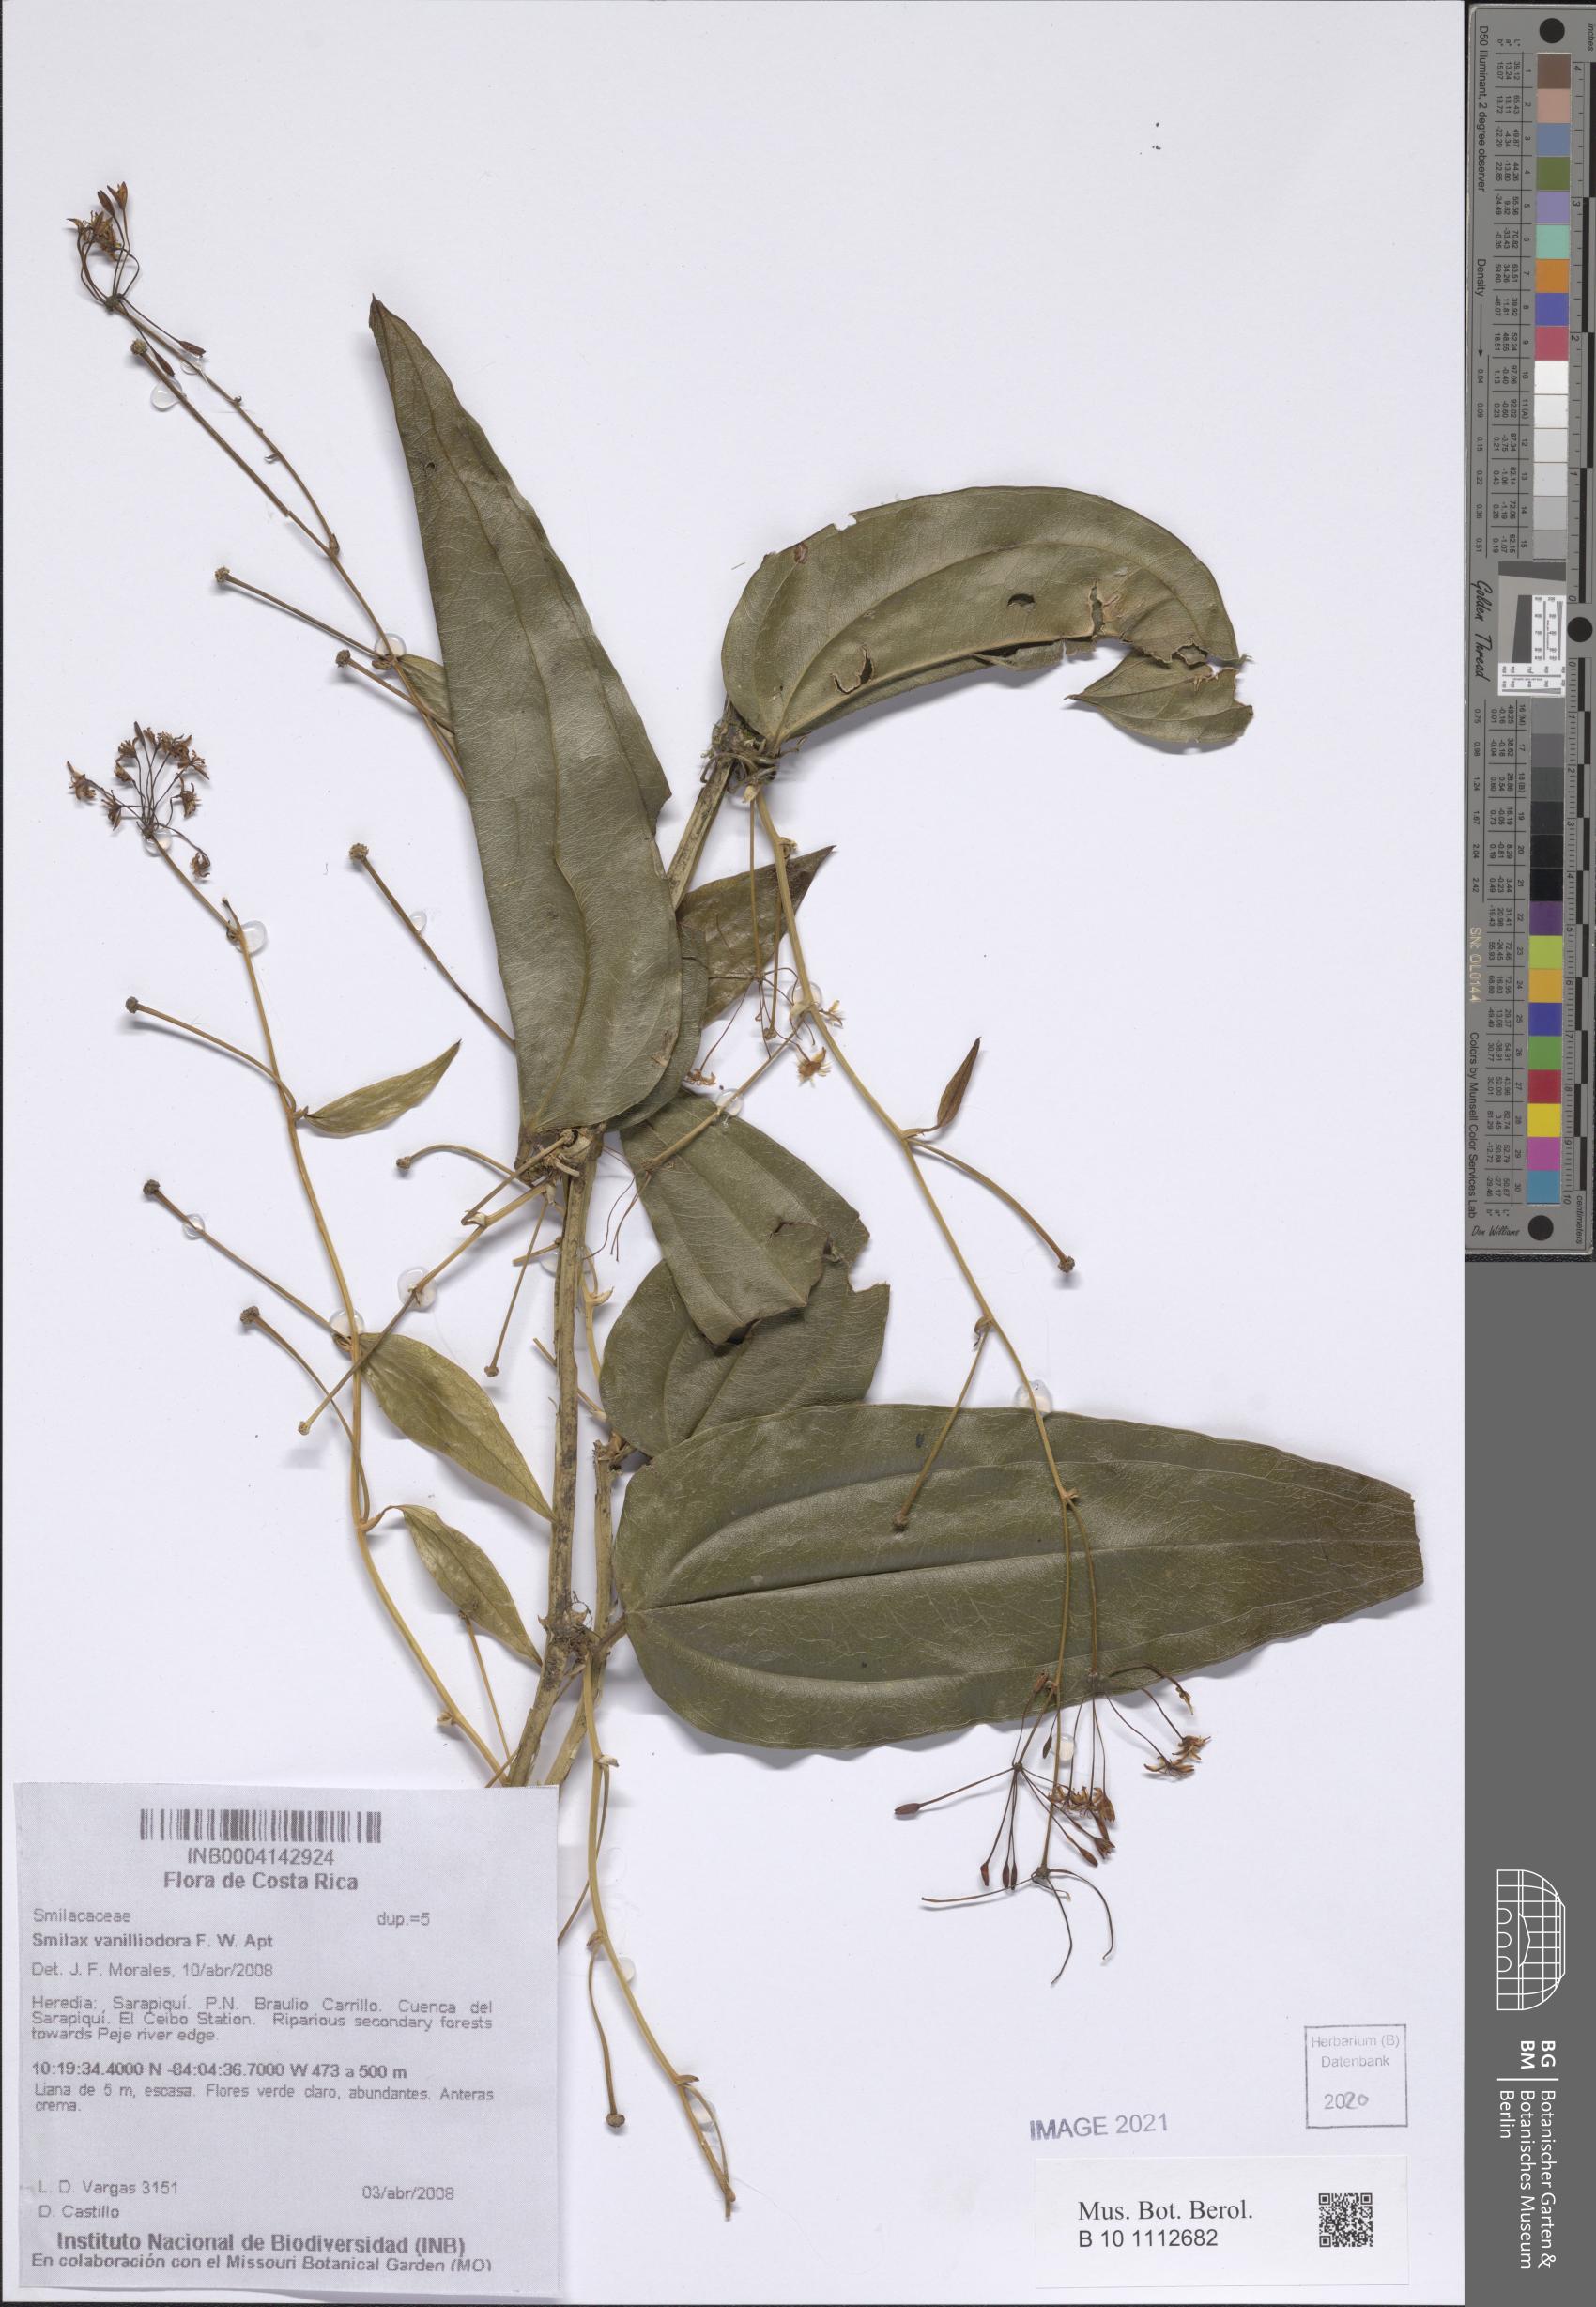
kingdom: Plantae
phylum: Tracheophyta
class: Liliopsida
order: Liliales
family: Smilacaceae
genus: Smilax
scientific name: Smilax officinalis
